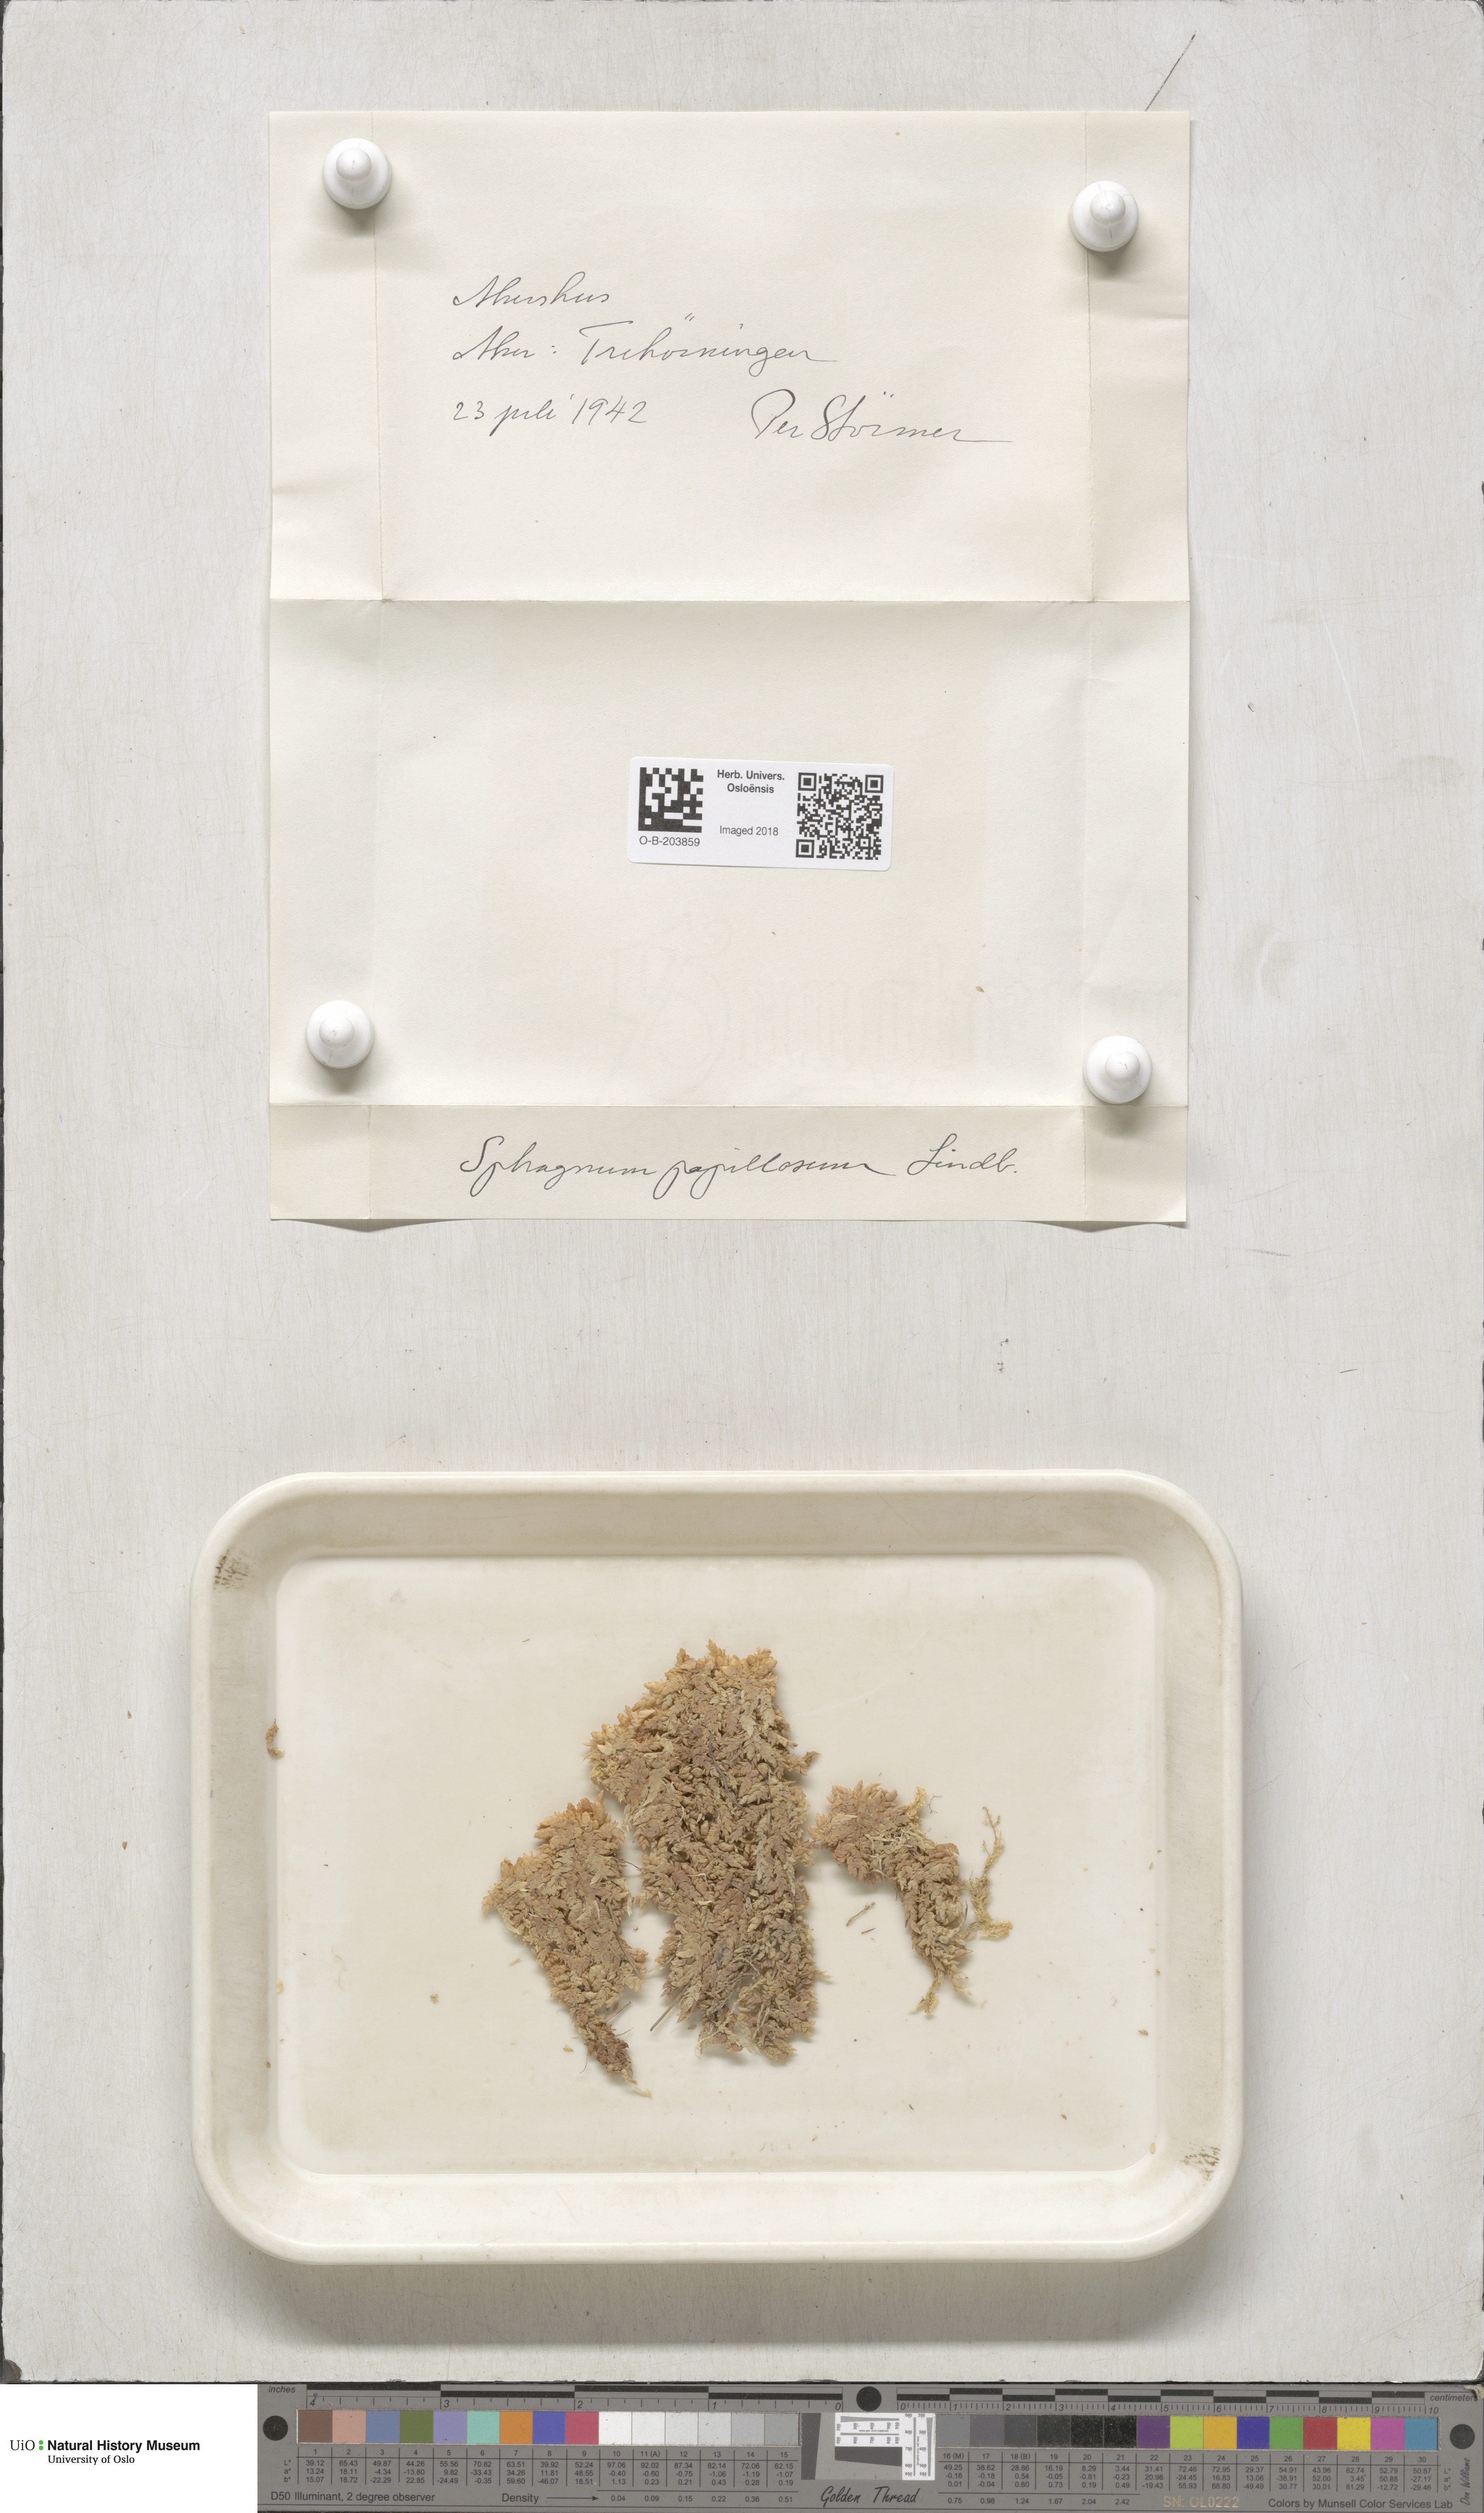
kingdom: Plantae
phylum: Bryophyta
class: Sphagnopsida
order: Sphagnales
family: Sphagnaceae
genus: Sphagnum
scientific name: Sphagnum papillosum
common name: Papillose peat moss
